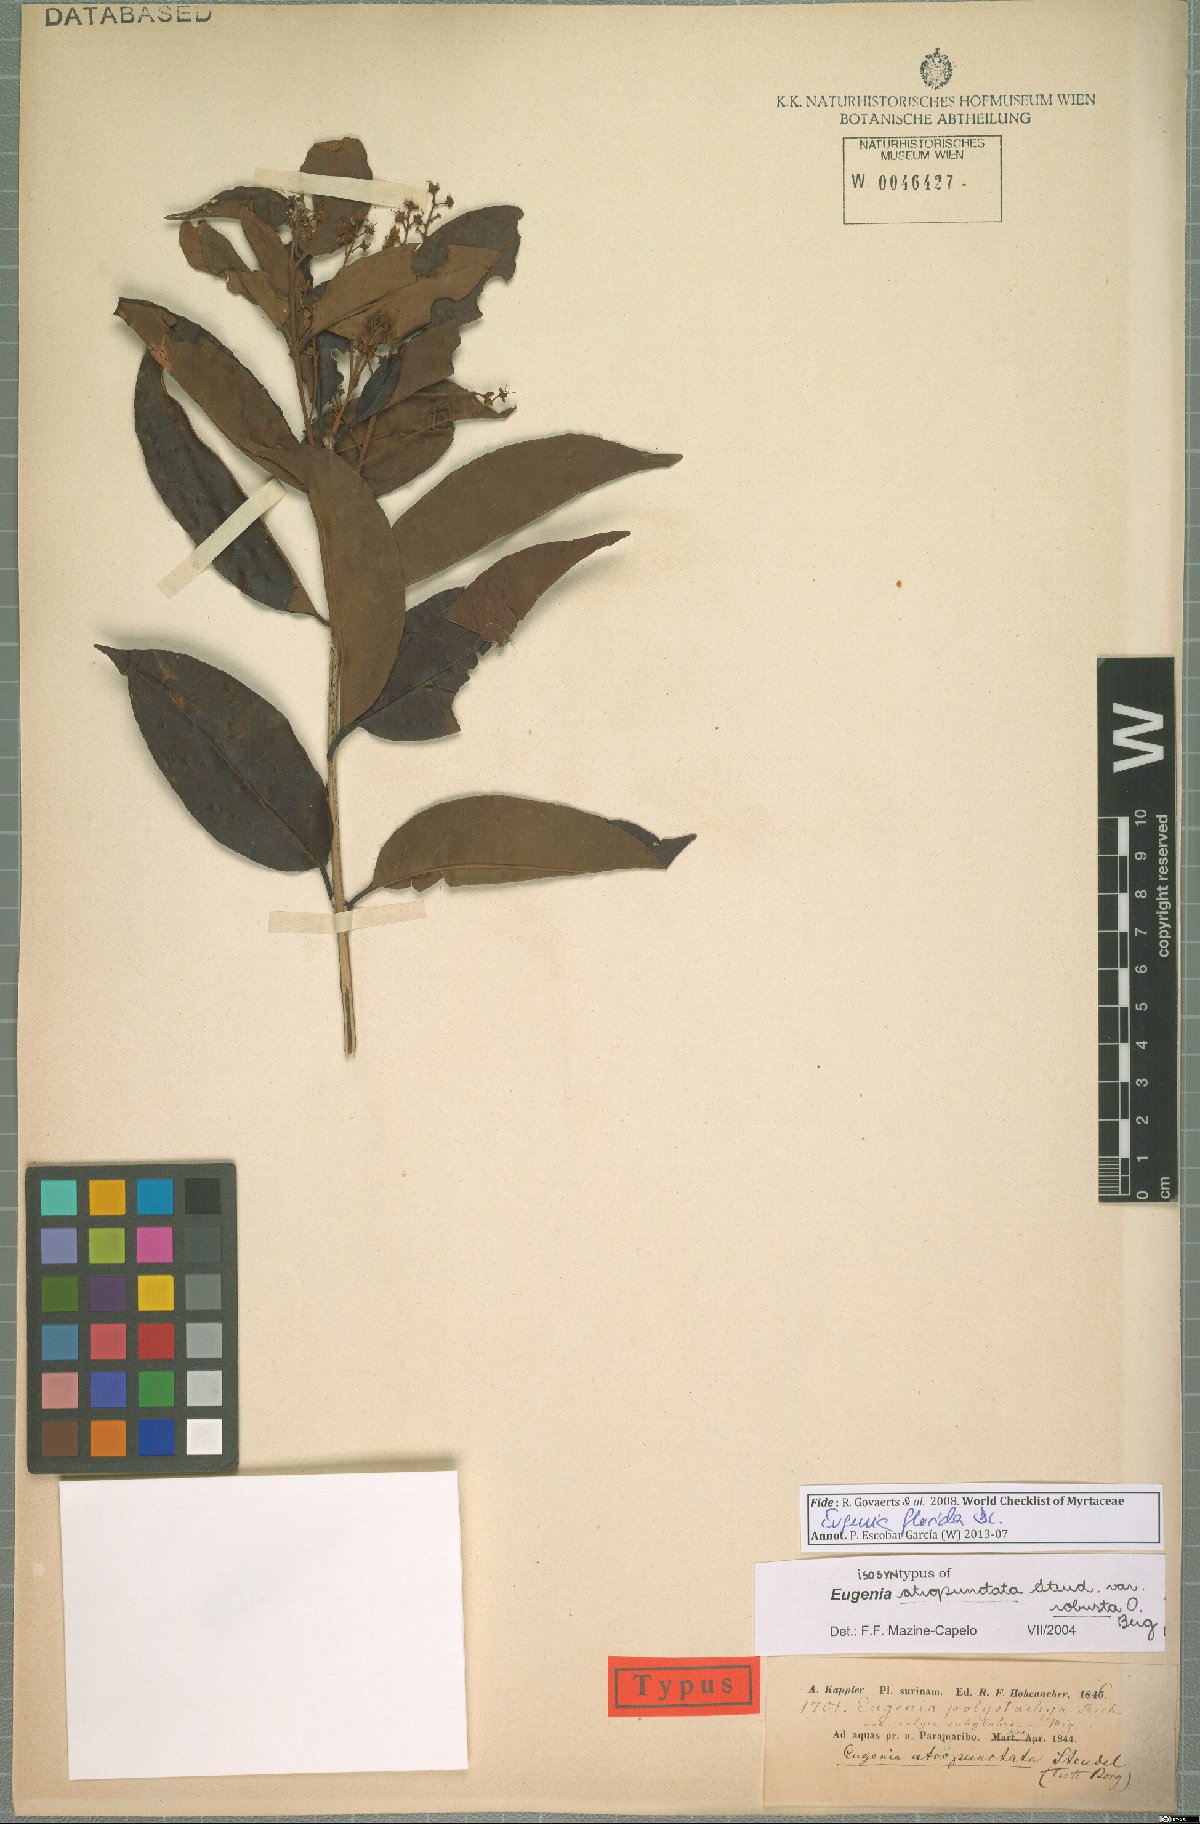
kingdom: Plantae
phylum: Tracheophyta
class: Magnoliopsida
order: Myrtales
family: Myrtaceae
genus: Eugenia
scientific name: Eugenia florida
